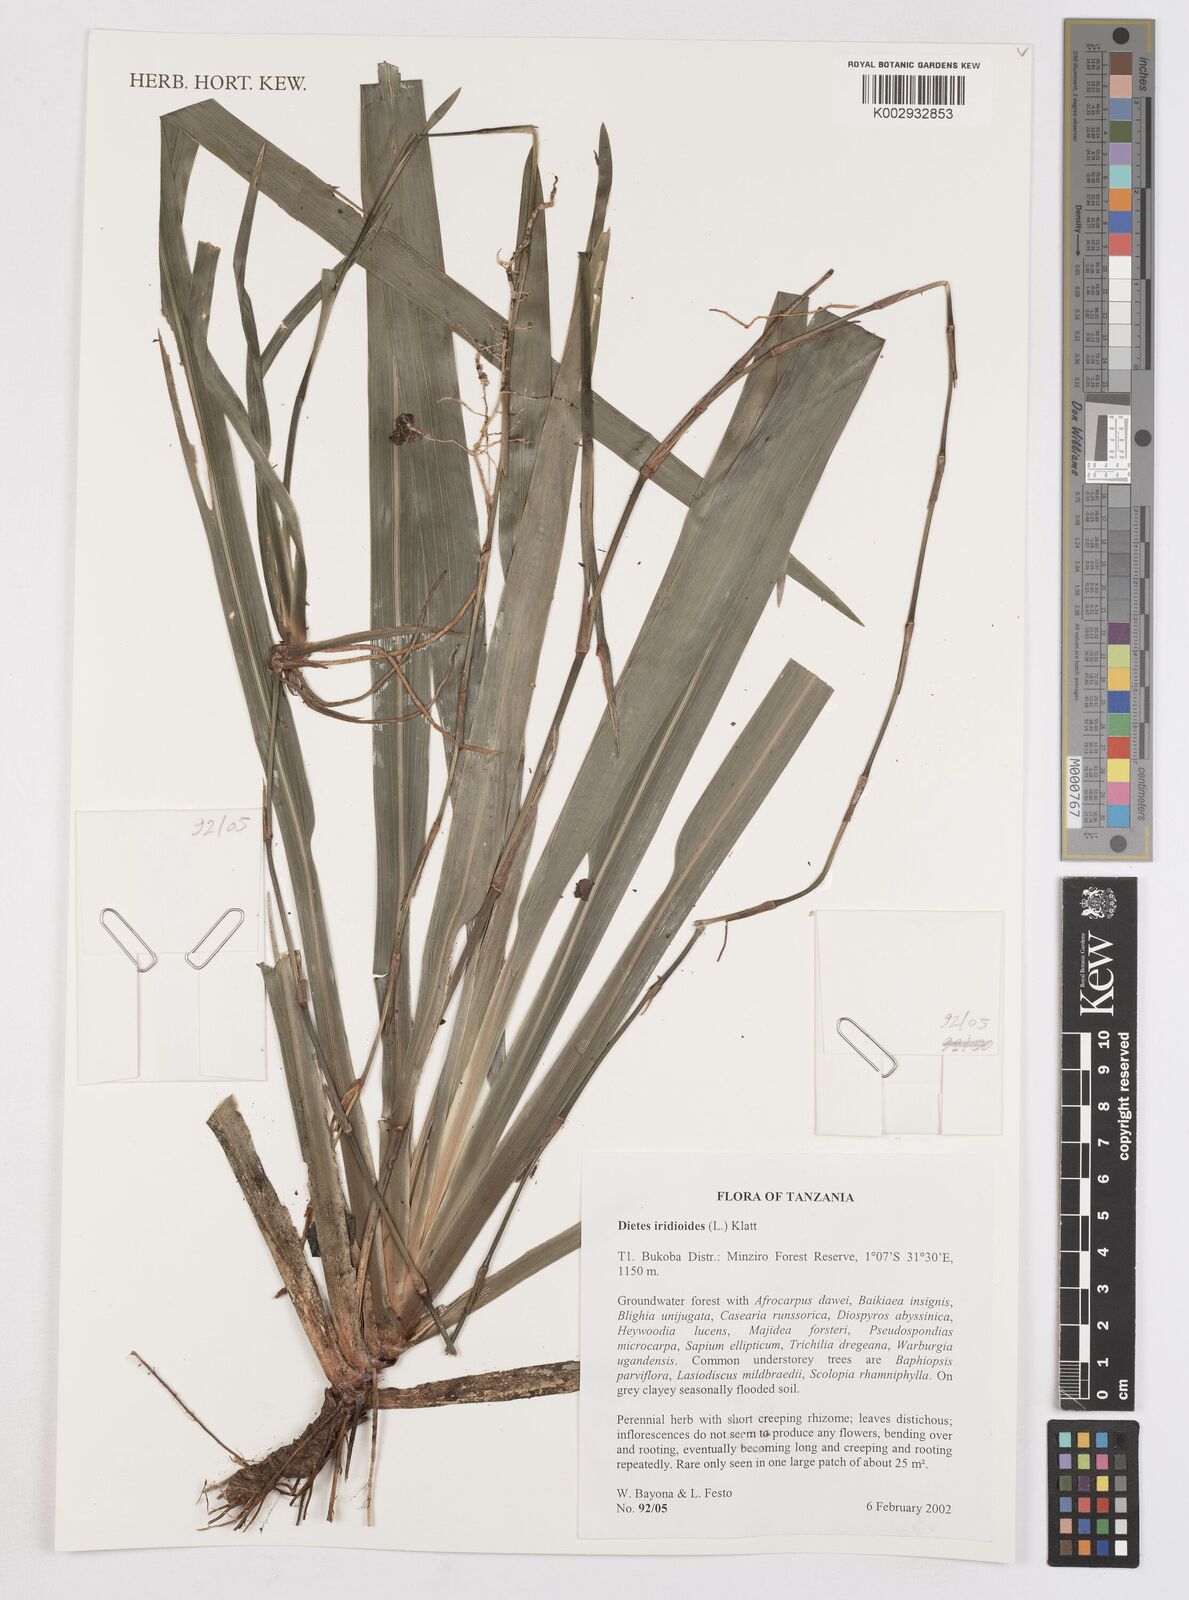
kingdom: Plantae
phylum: Tracheophyta
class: Liliopsida
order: Asparagales
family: Iridaceae
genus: Dietes
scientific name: Dietes iridioides
